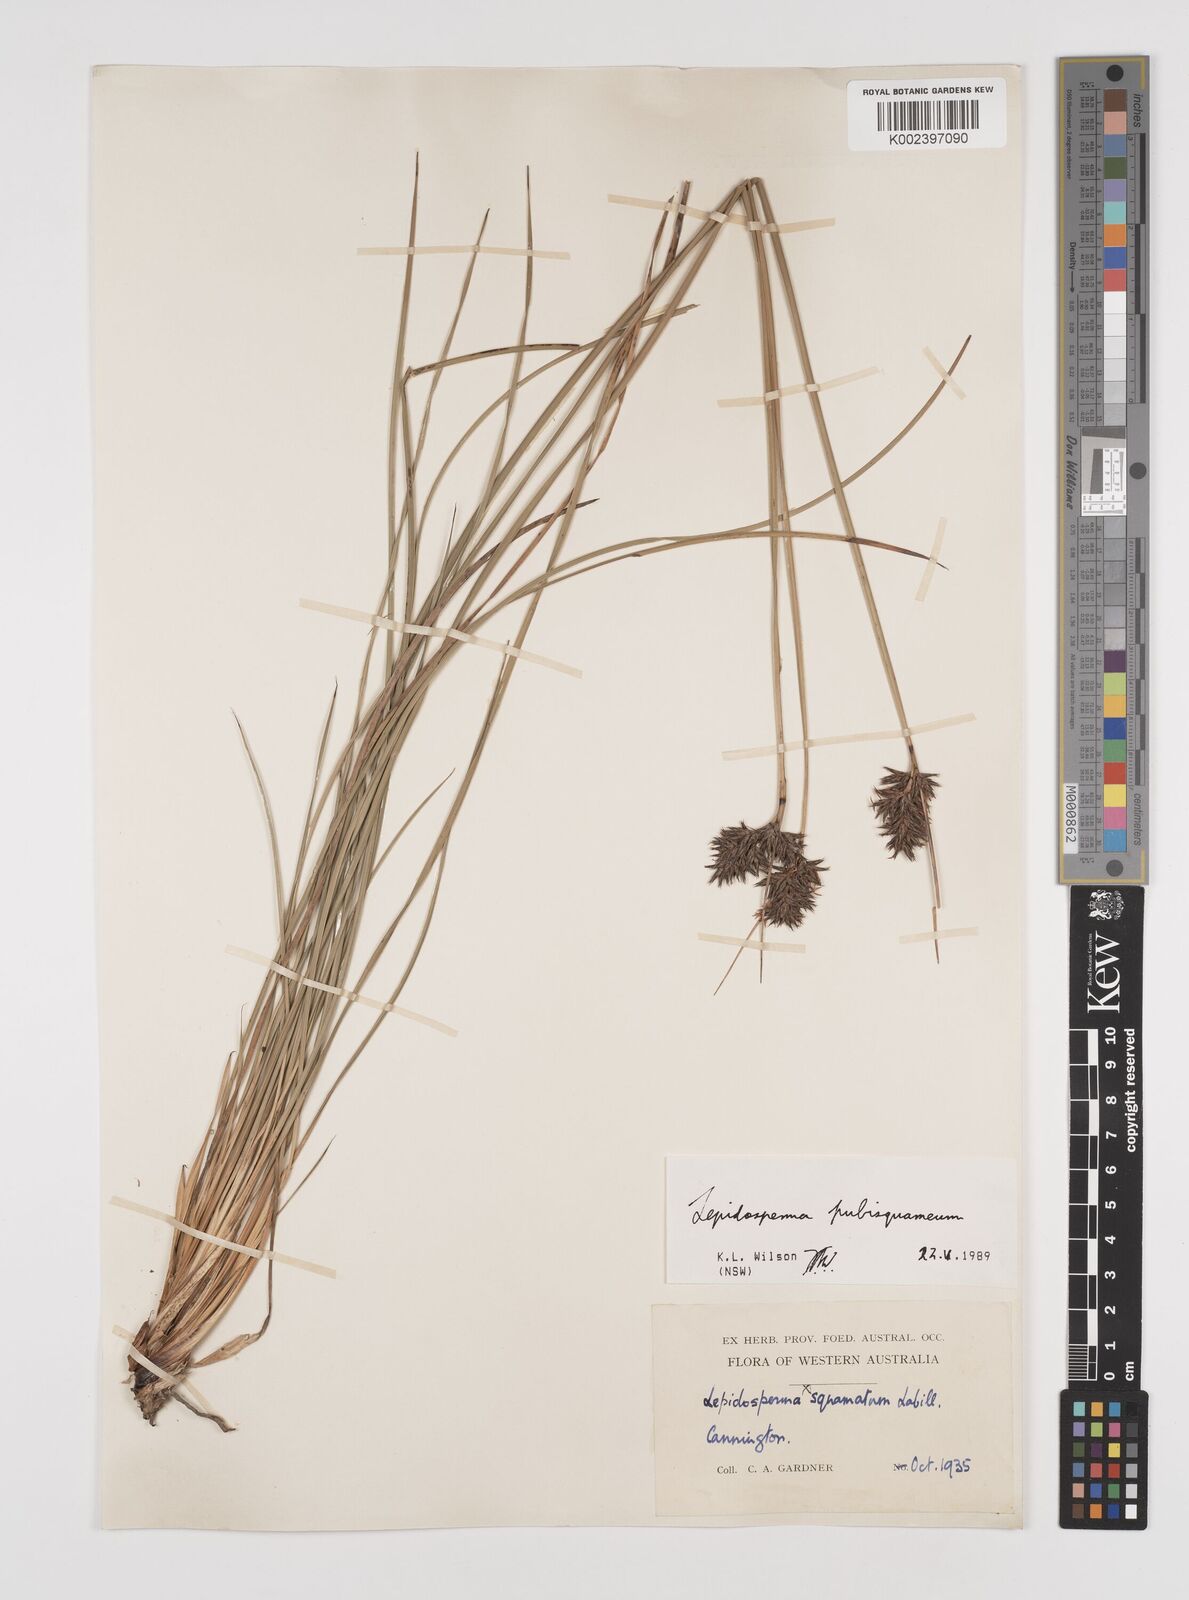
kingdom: Plantae
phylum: Tracheophyta
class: Liliopsida
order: Poales
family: Cyperaceae
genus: Lepidosperma
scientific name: Lepidosperma pubisquameum
